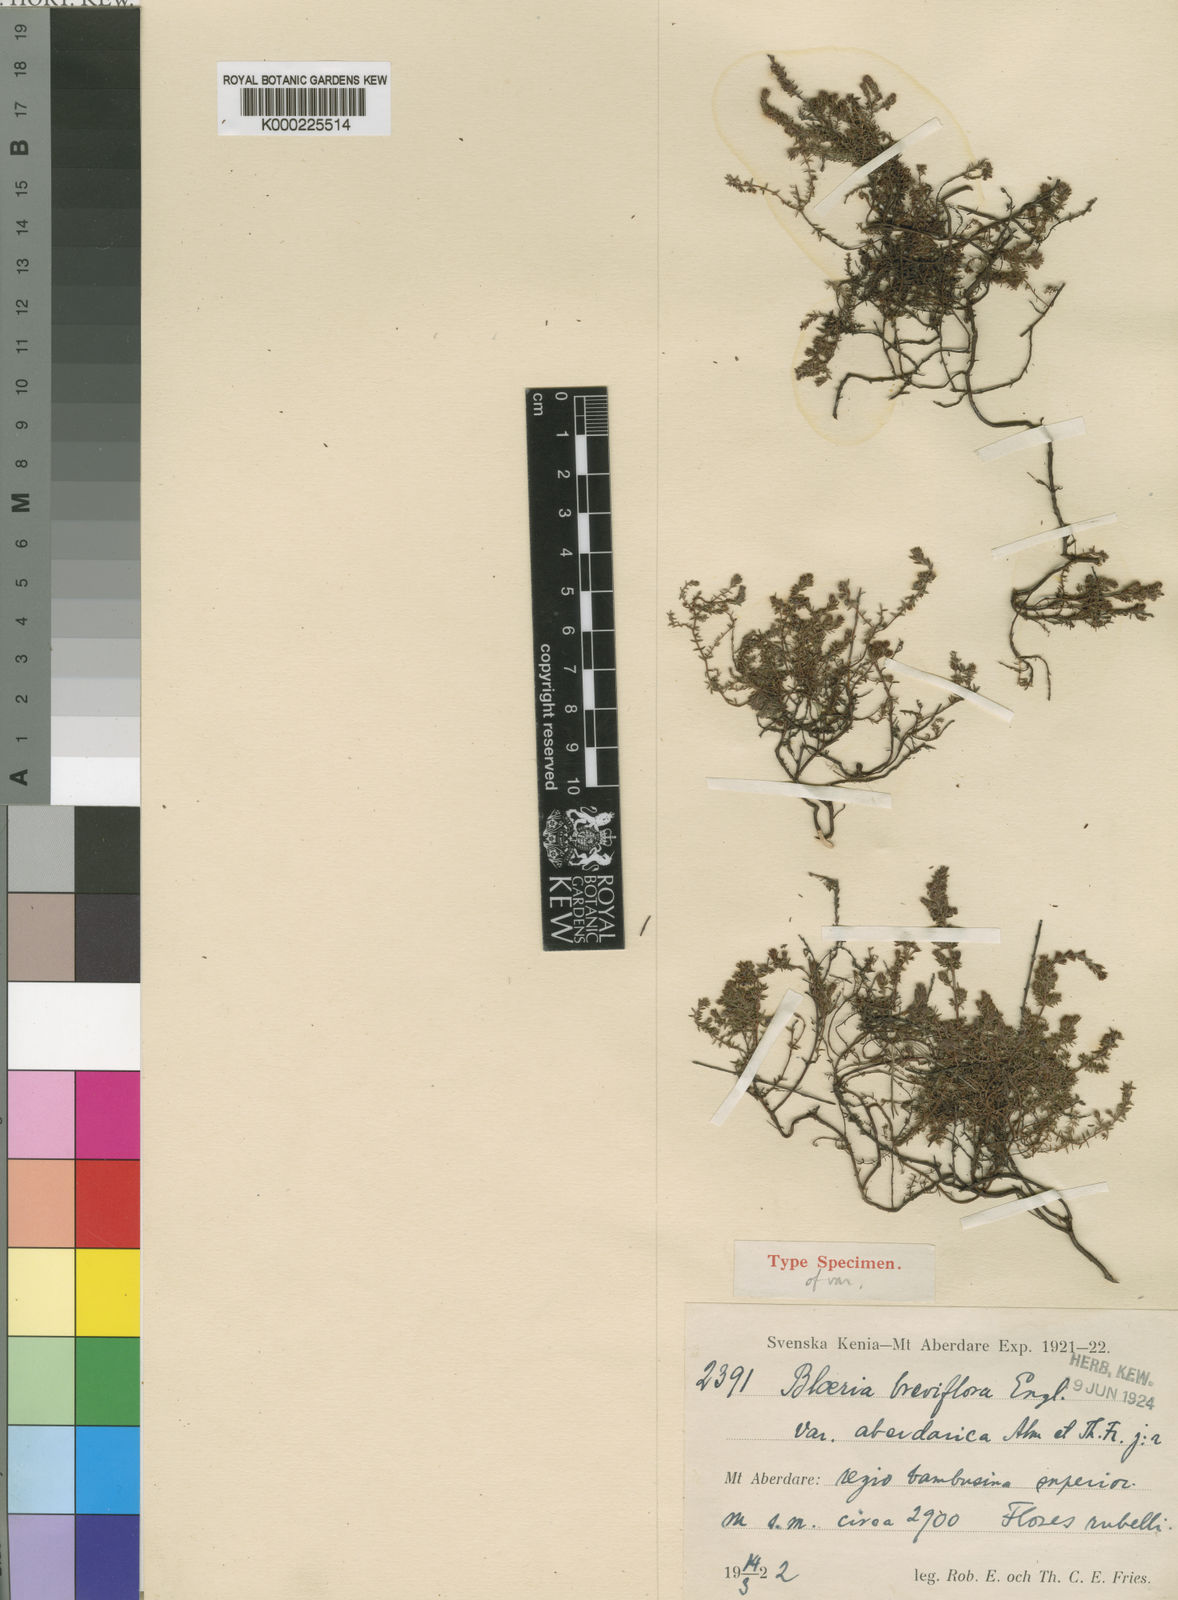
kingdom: Plantae
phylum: Tracheophyta
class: Magnoliopsida
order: Ericales
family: Ericaceae
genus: Erica
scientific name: Erica silvatica
